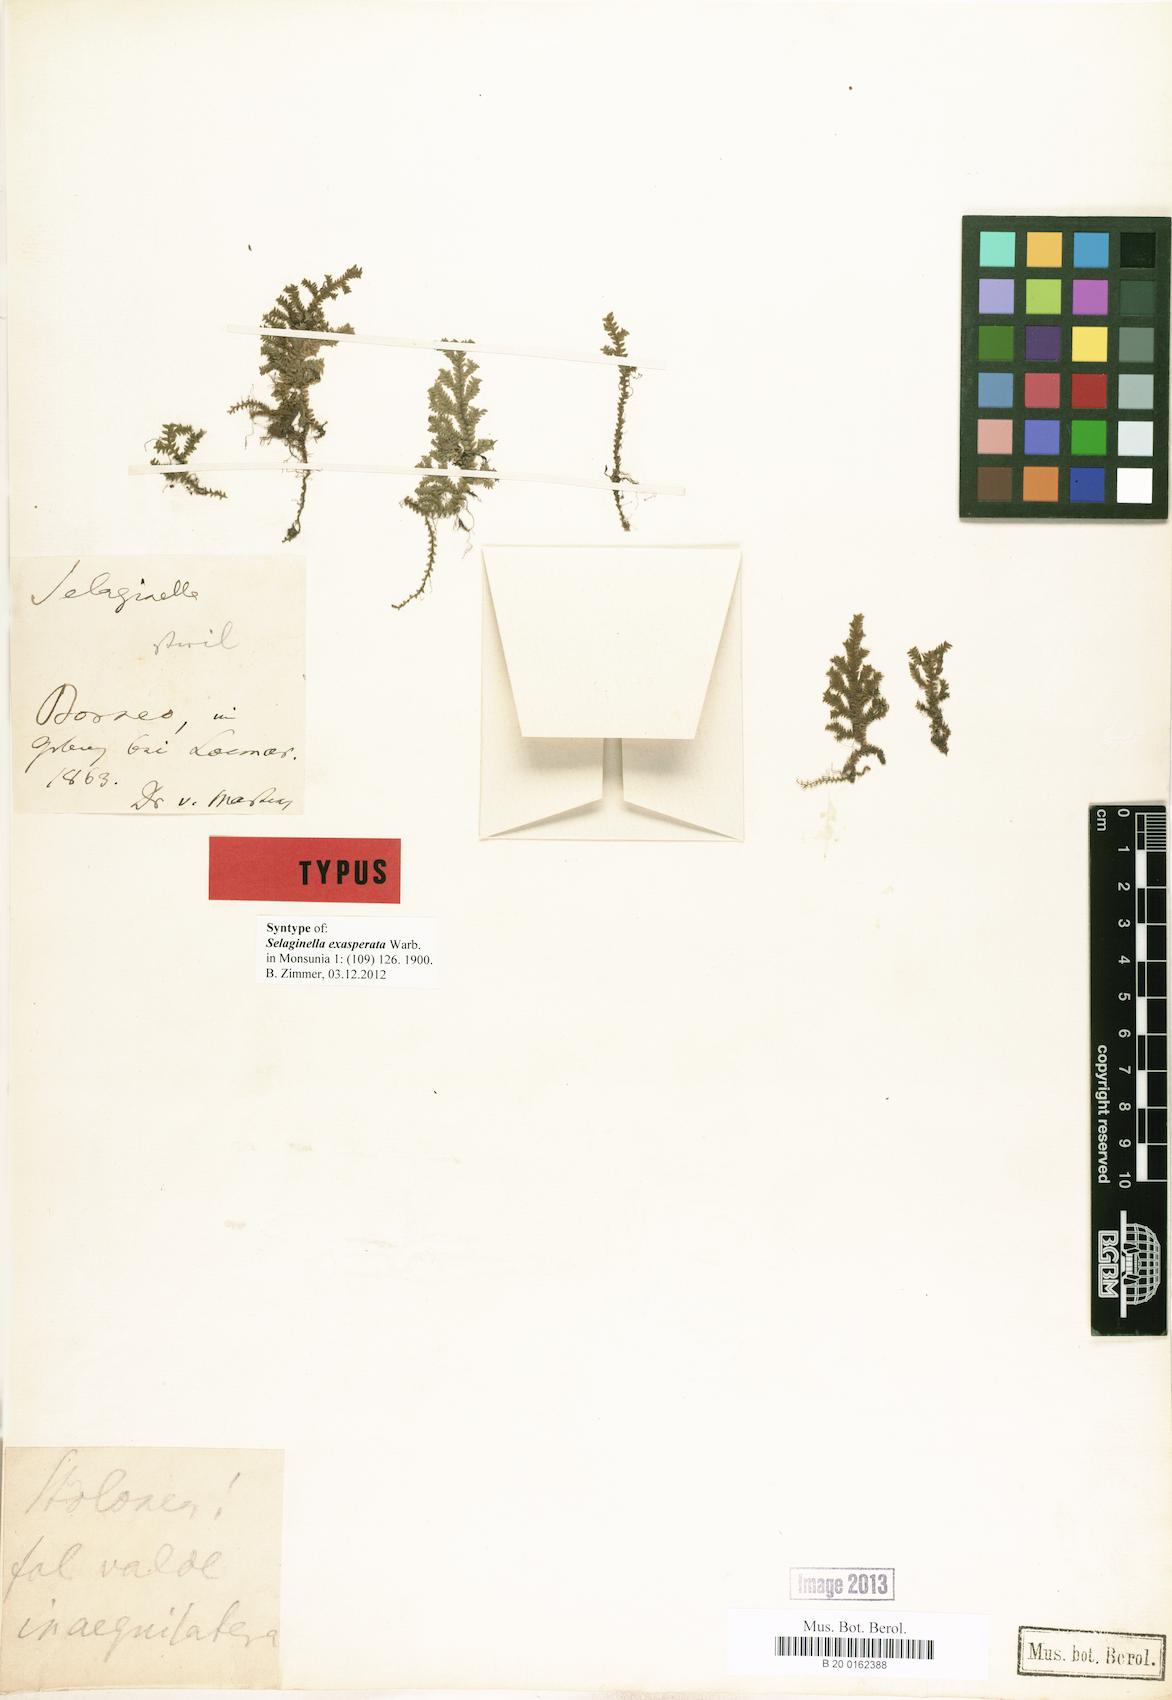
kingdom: Plantae
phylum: Tracheophyta
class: Lycopodiopsida
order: Selaginellales
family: Selaginellaceae
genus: Selaginella
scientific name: Selaginella exasperata
